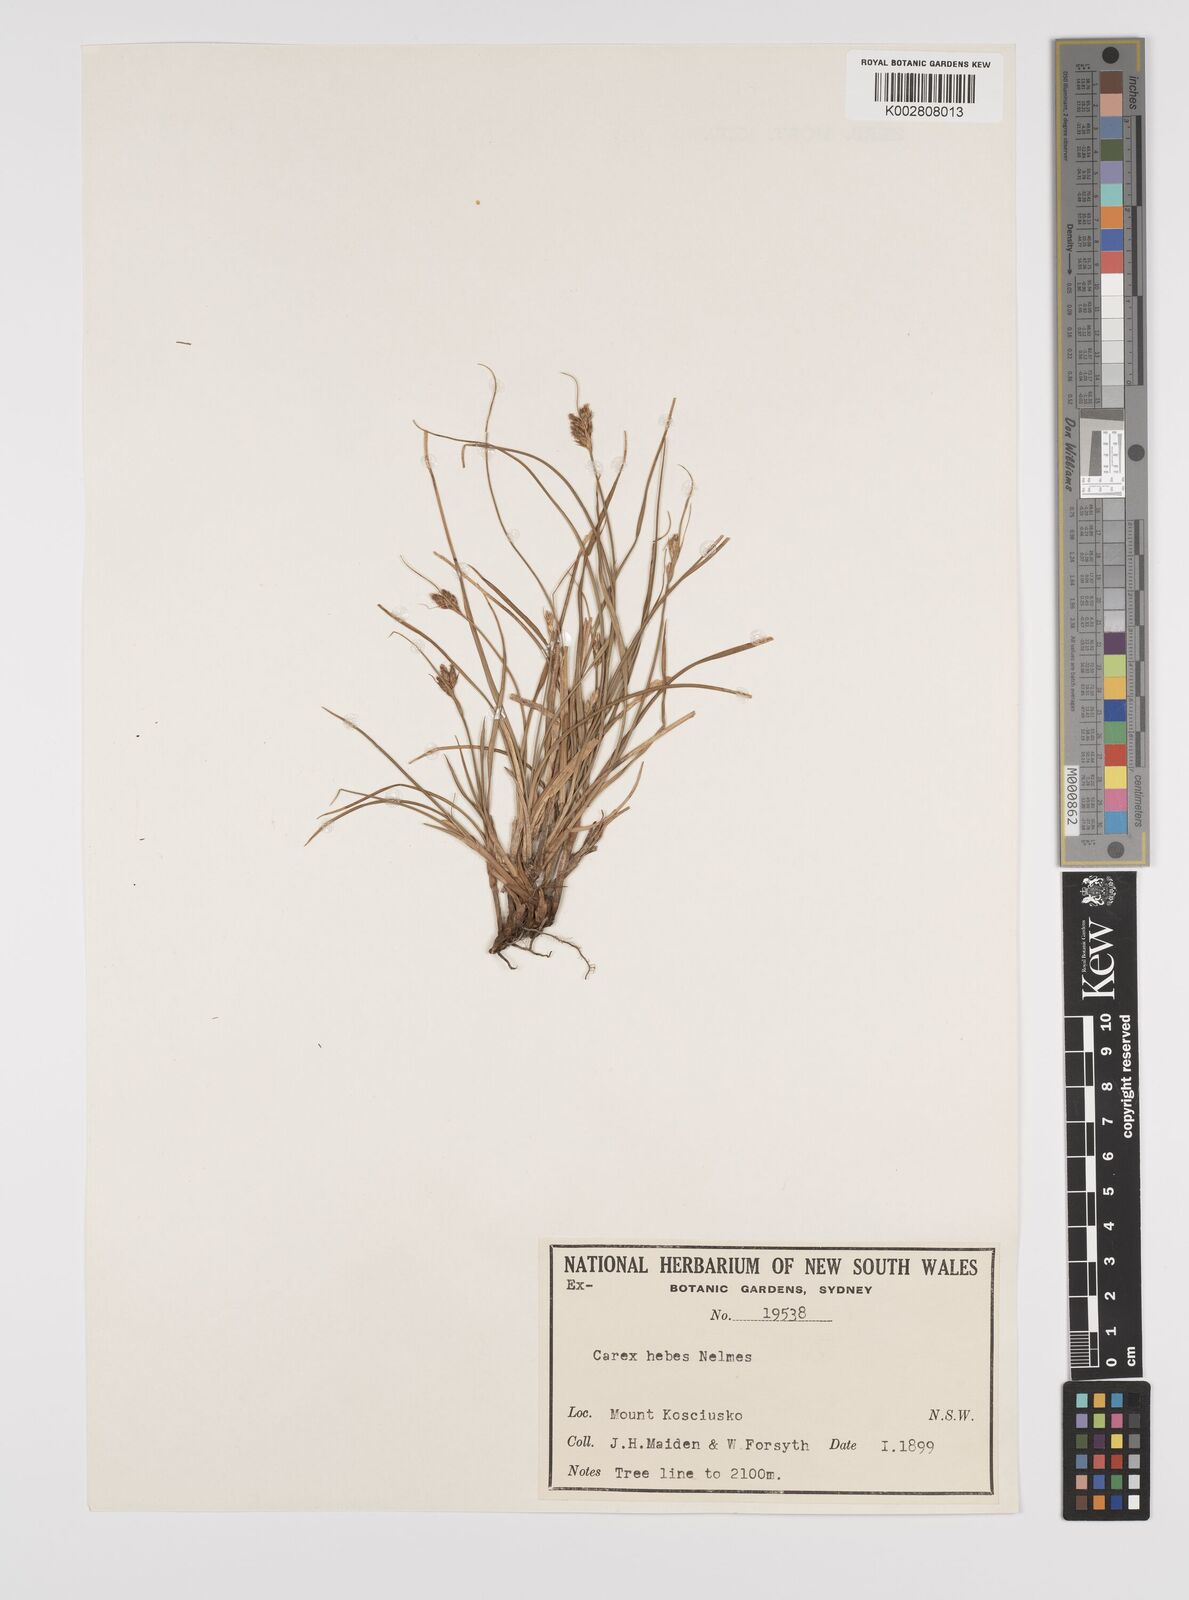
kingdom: Plantae
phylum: Tracheophyta
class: Liliopsida
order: Poales
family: Cyperaceae
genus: Carex
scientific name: Carex hebes
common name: Dry land sedge
